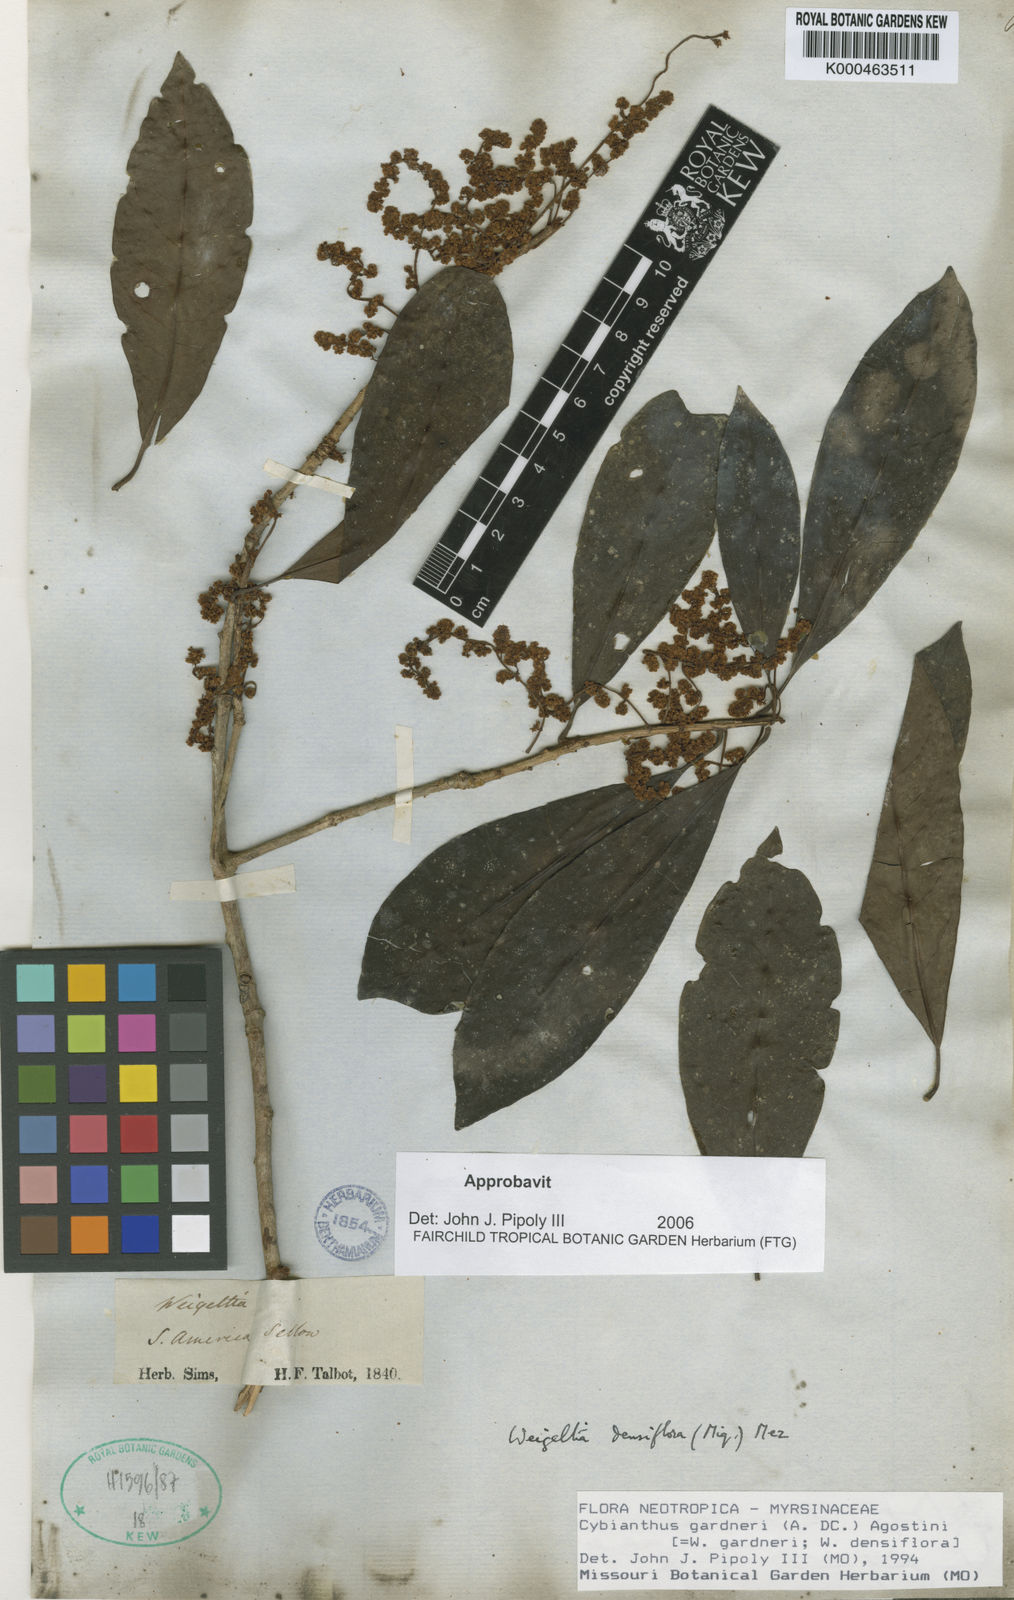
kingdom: Plantae
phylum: Tracheophyta
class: Magnoliopsida
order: Ericales
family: Primulaceae
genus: Cybianthus
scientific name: Cybianthus gardneri
